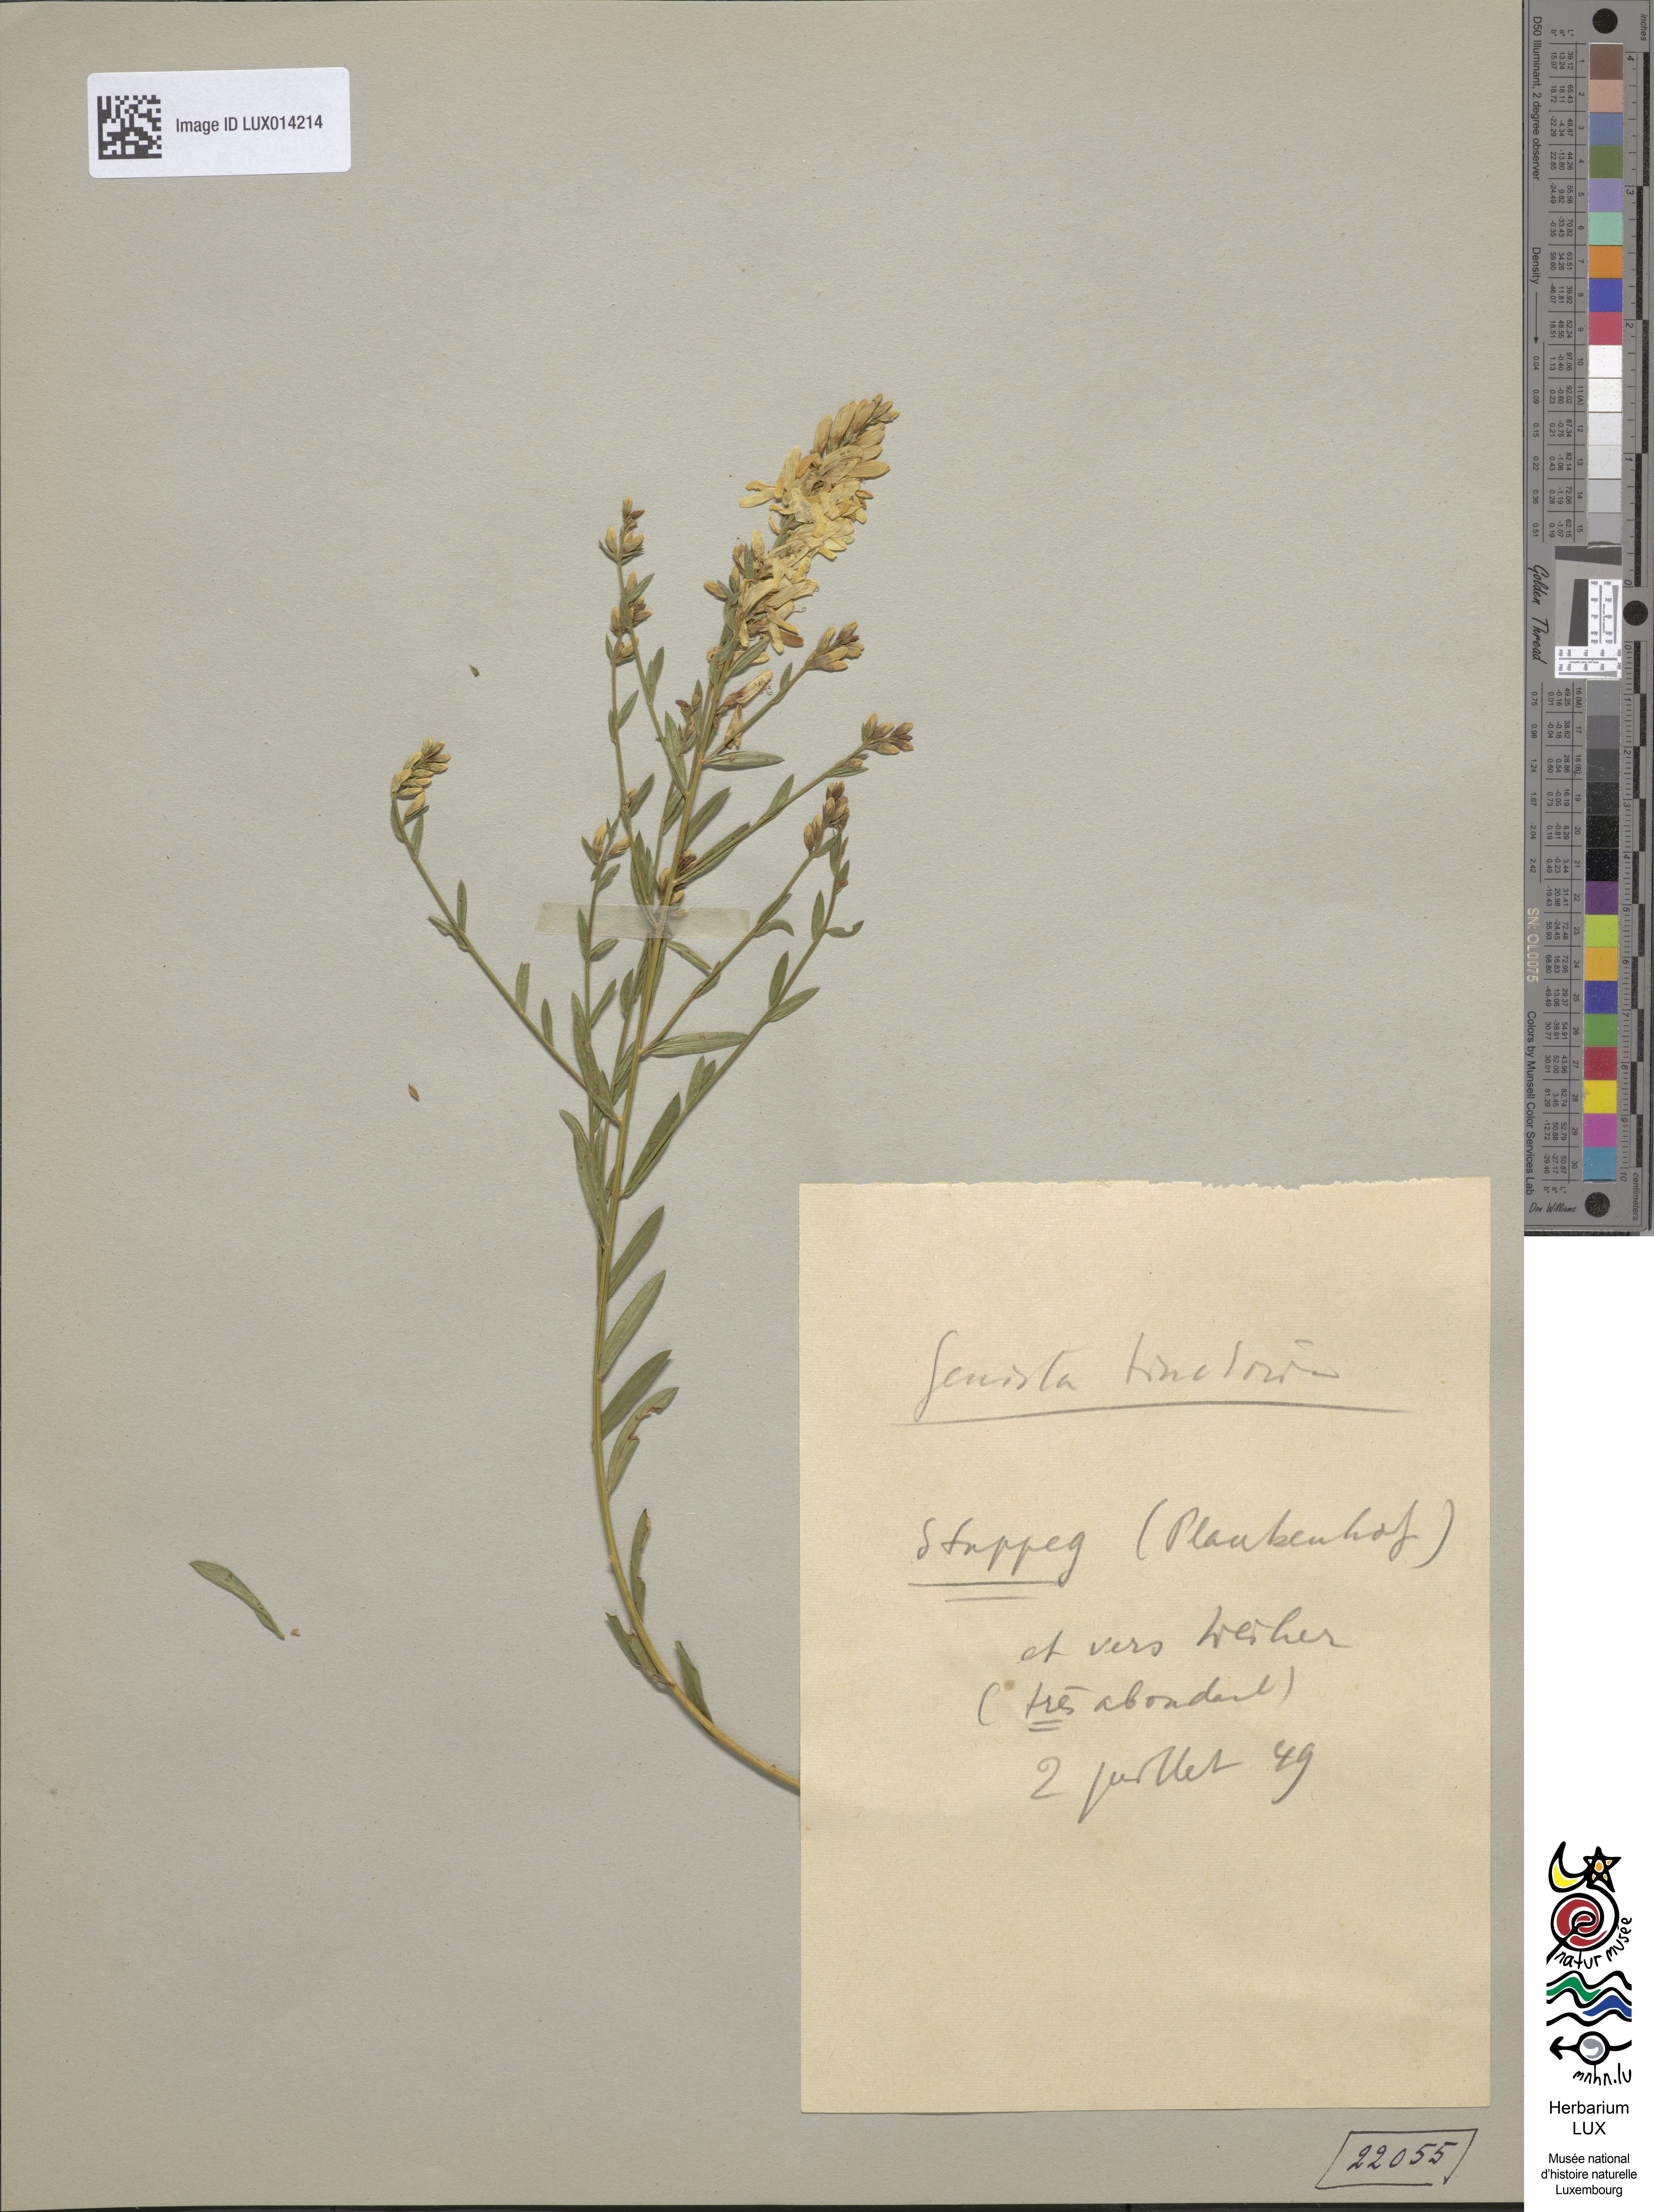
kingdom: Plantae
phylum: Tracheophyta
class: Magnoliopsida
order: Fabales
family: Fabaceae
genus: Genista
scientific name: Genista tinctoria
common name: Dyer's greenweed
